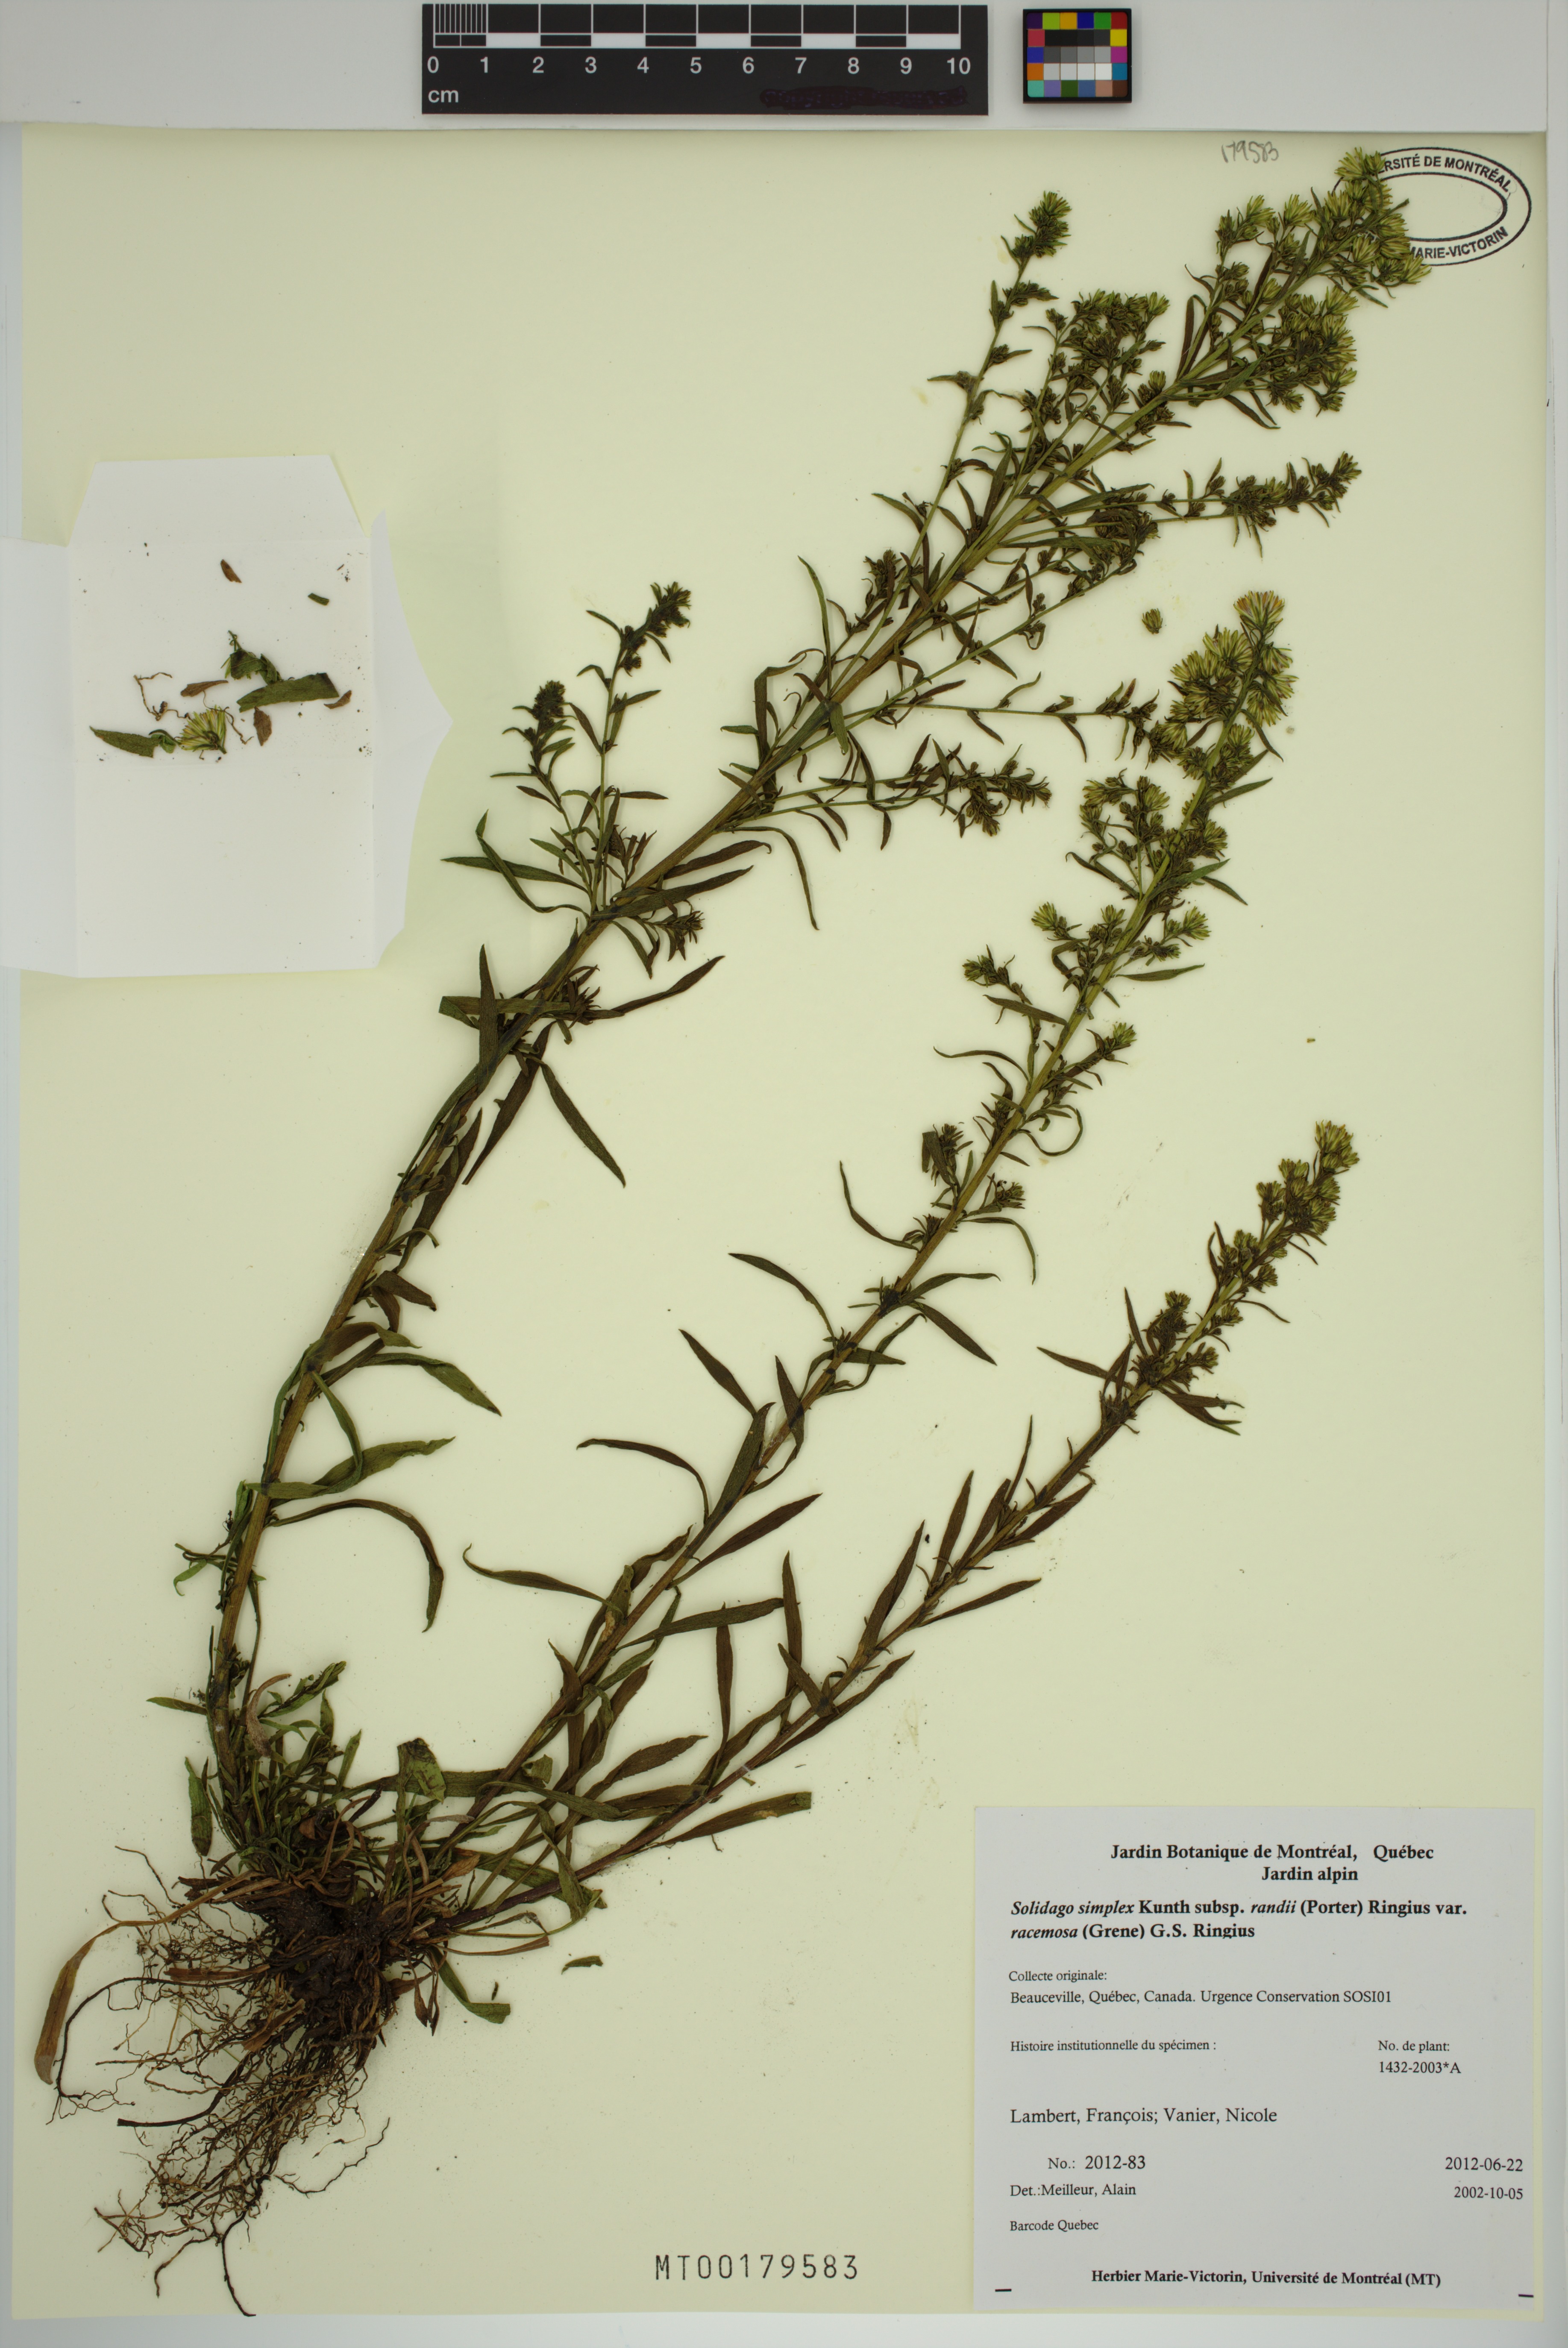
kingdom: Plantae
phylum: Tracheophyta
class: Magnoliopsida
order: Asterales
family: Asteraceae
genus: Solidago
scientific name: Solidago racemosa
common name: Lake ontario goldenrod
